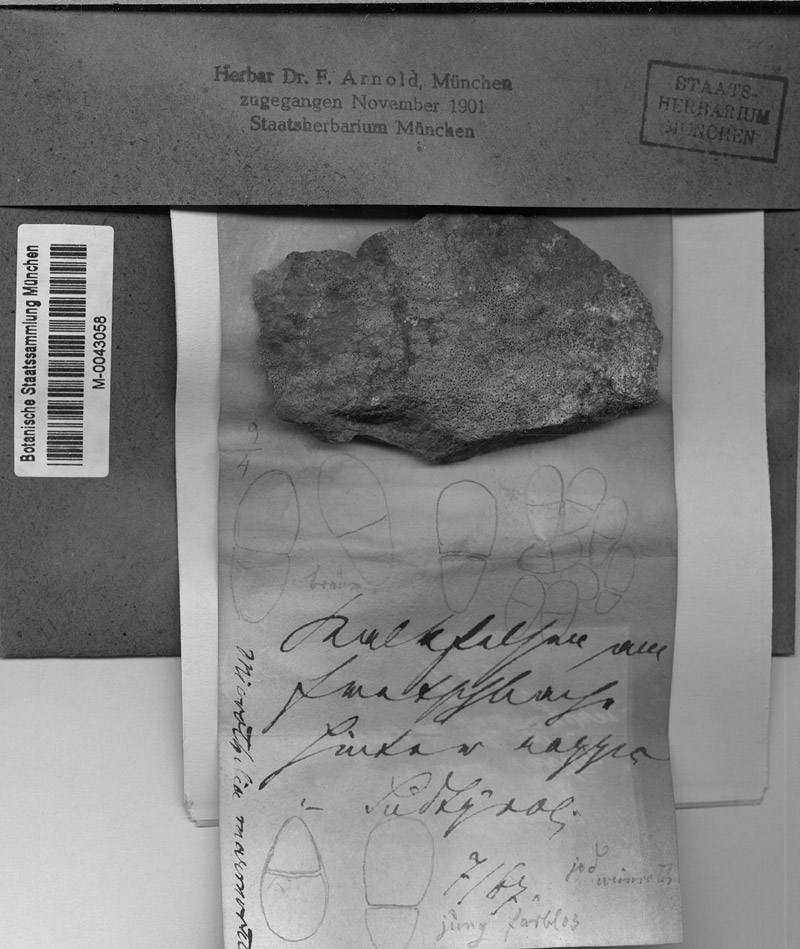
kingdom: Fungi
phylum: Ascomycota
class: Dothideomycetes
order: Trypetheliales
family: Polycoccaceae
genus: Polycoccum
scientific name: Polycoccum marmoratum
